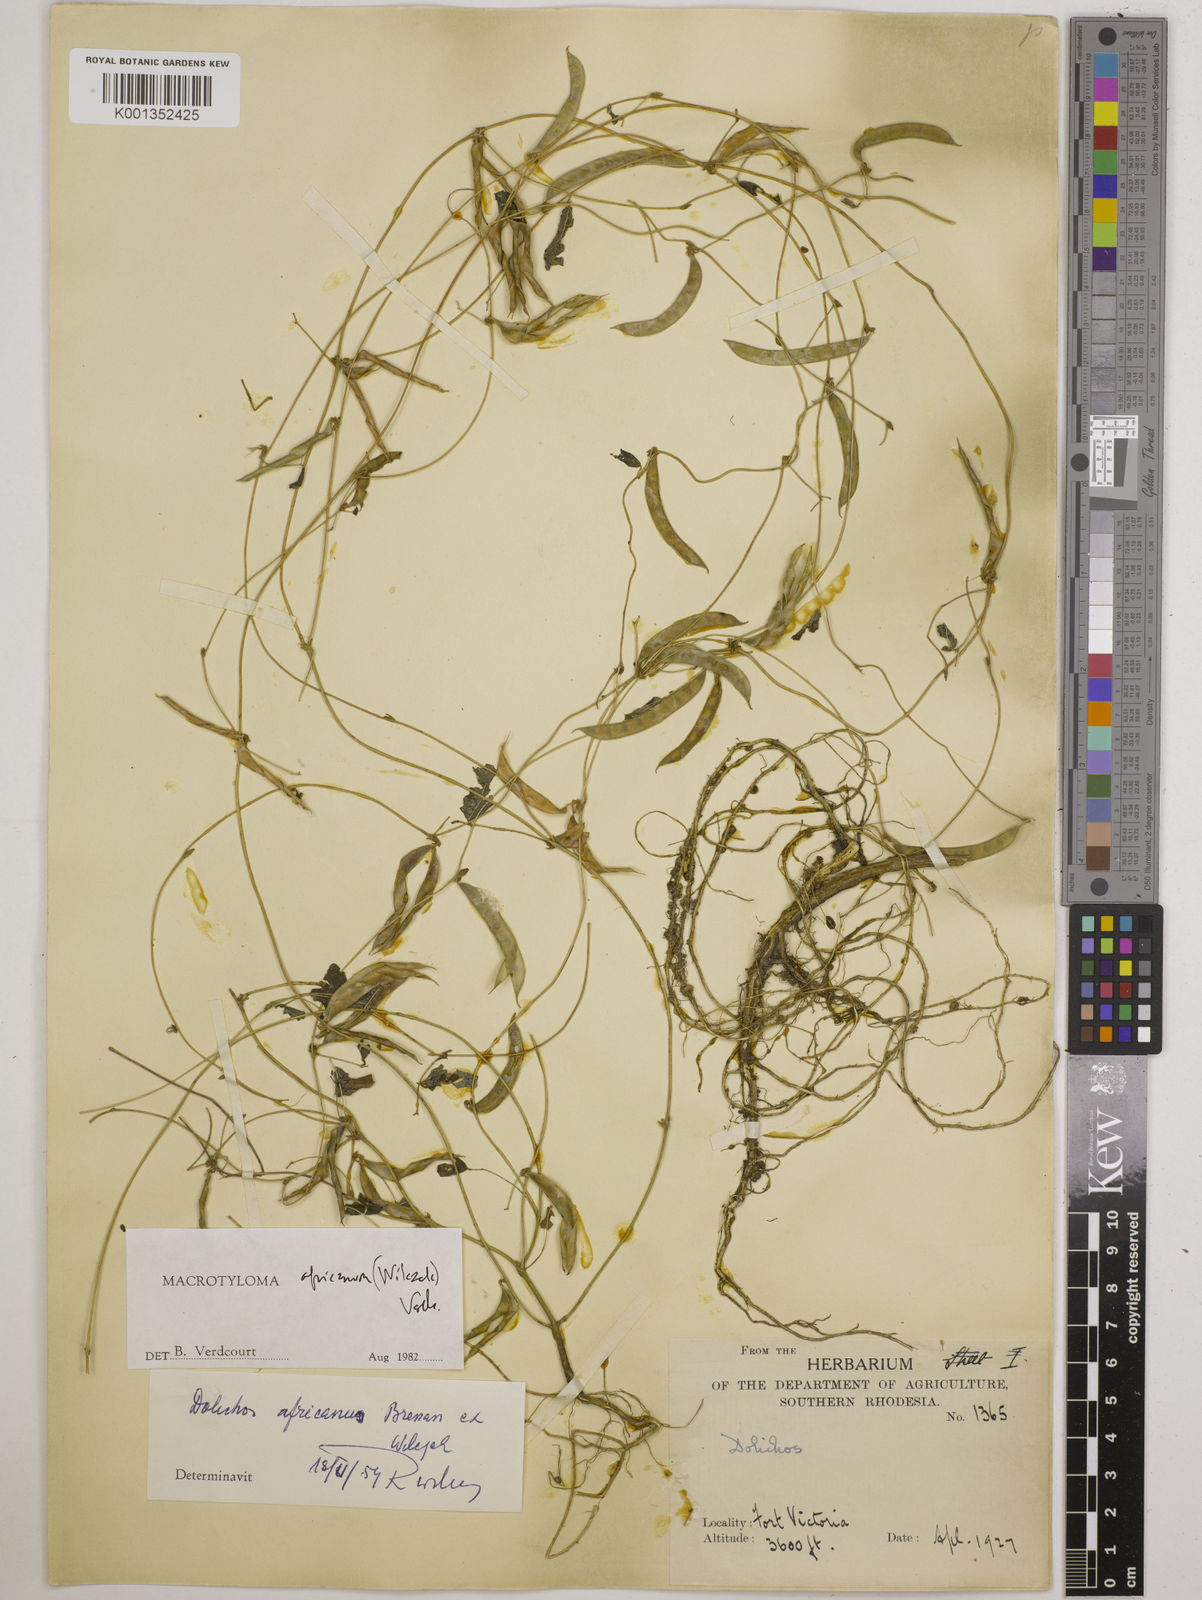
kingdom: Plantae
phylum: Tracheophyta
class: Magnoliopsida
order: Fabales
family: Fabaceae
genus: Macrotyloma
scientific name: Macrotyloma africanum
